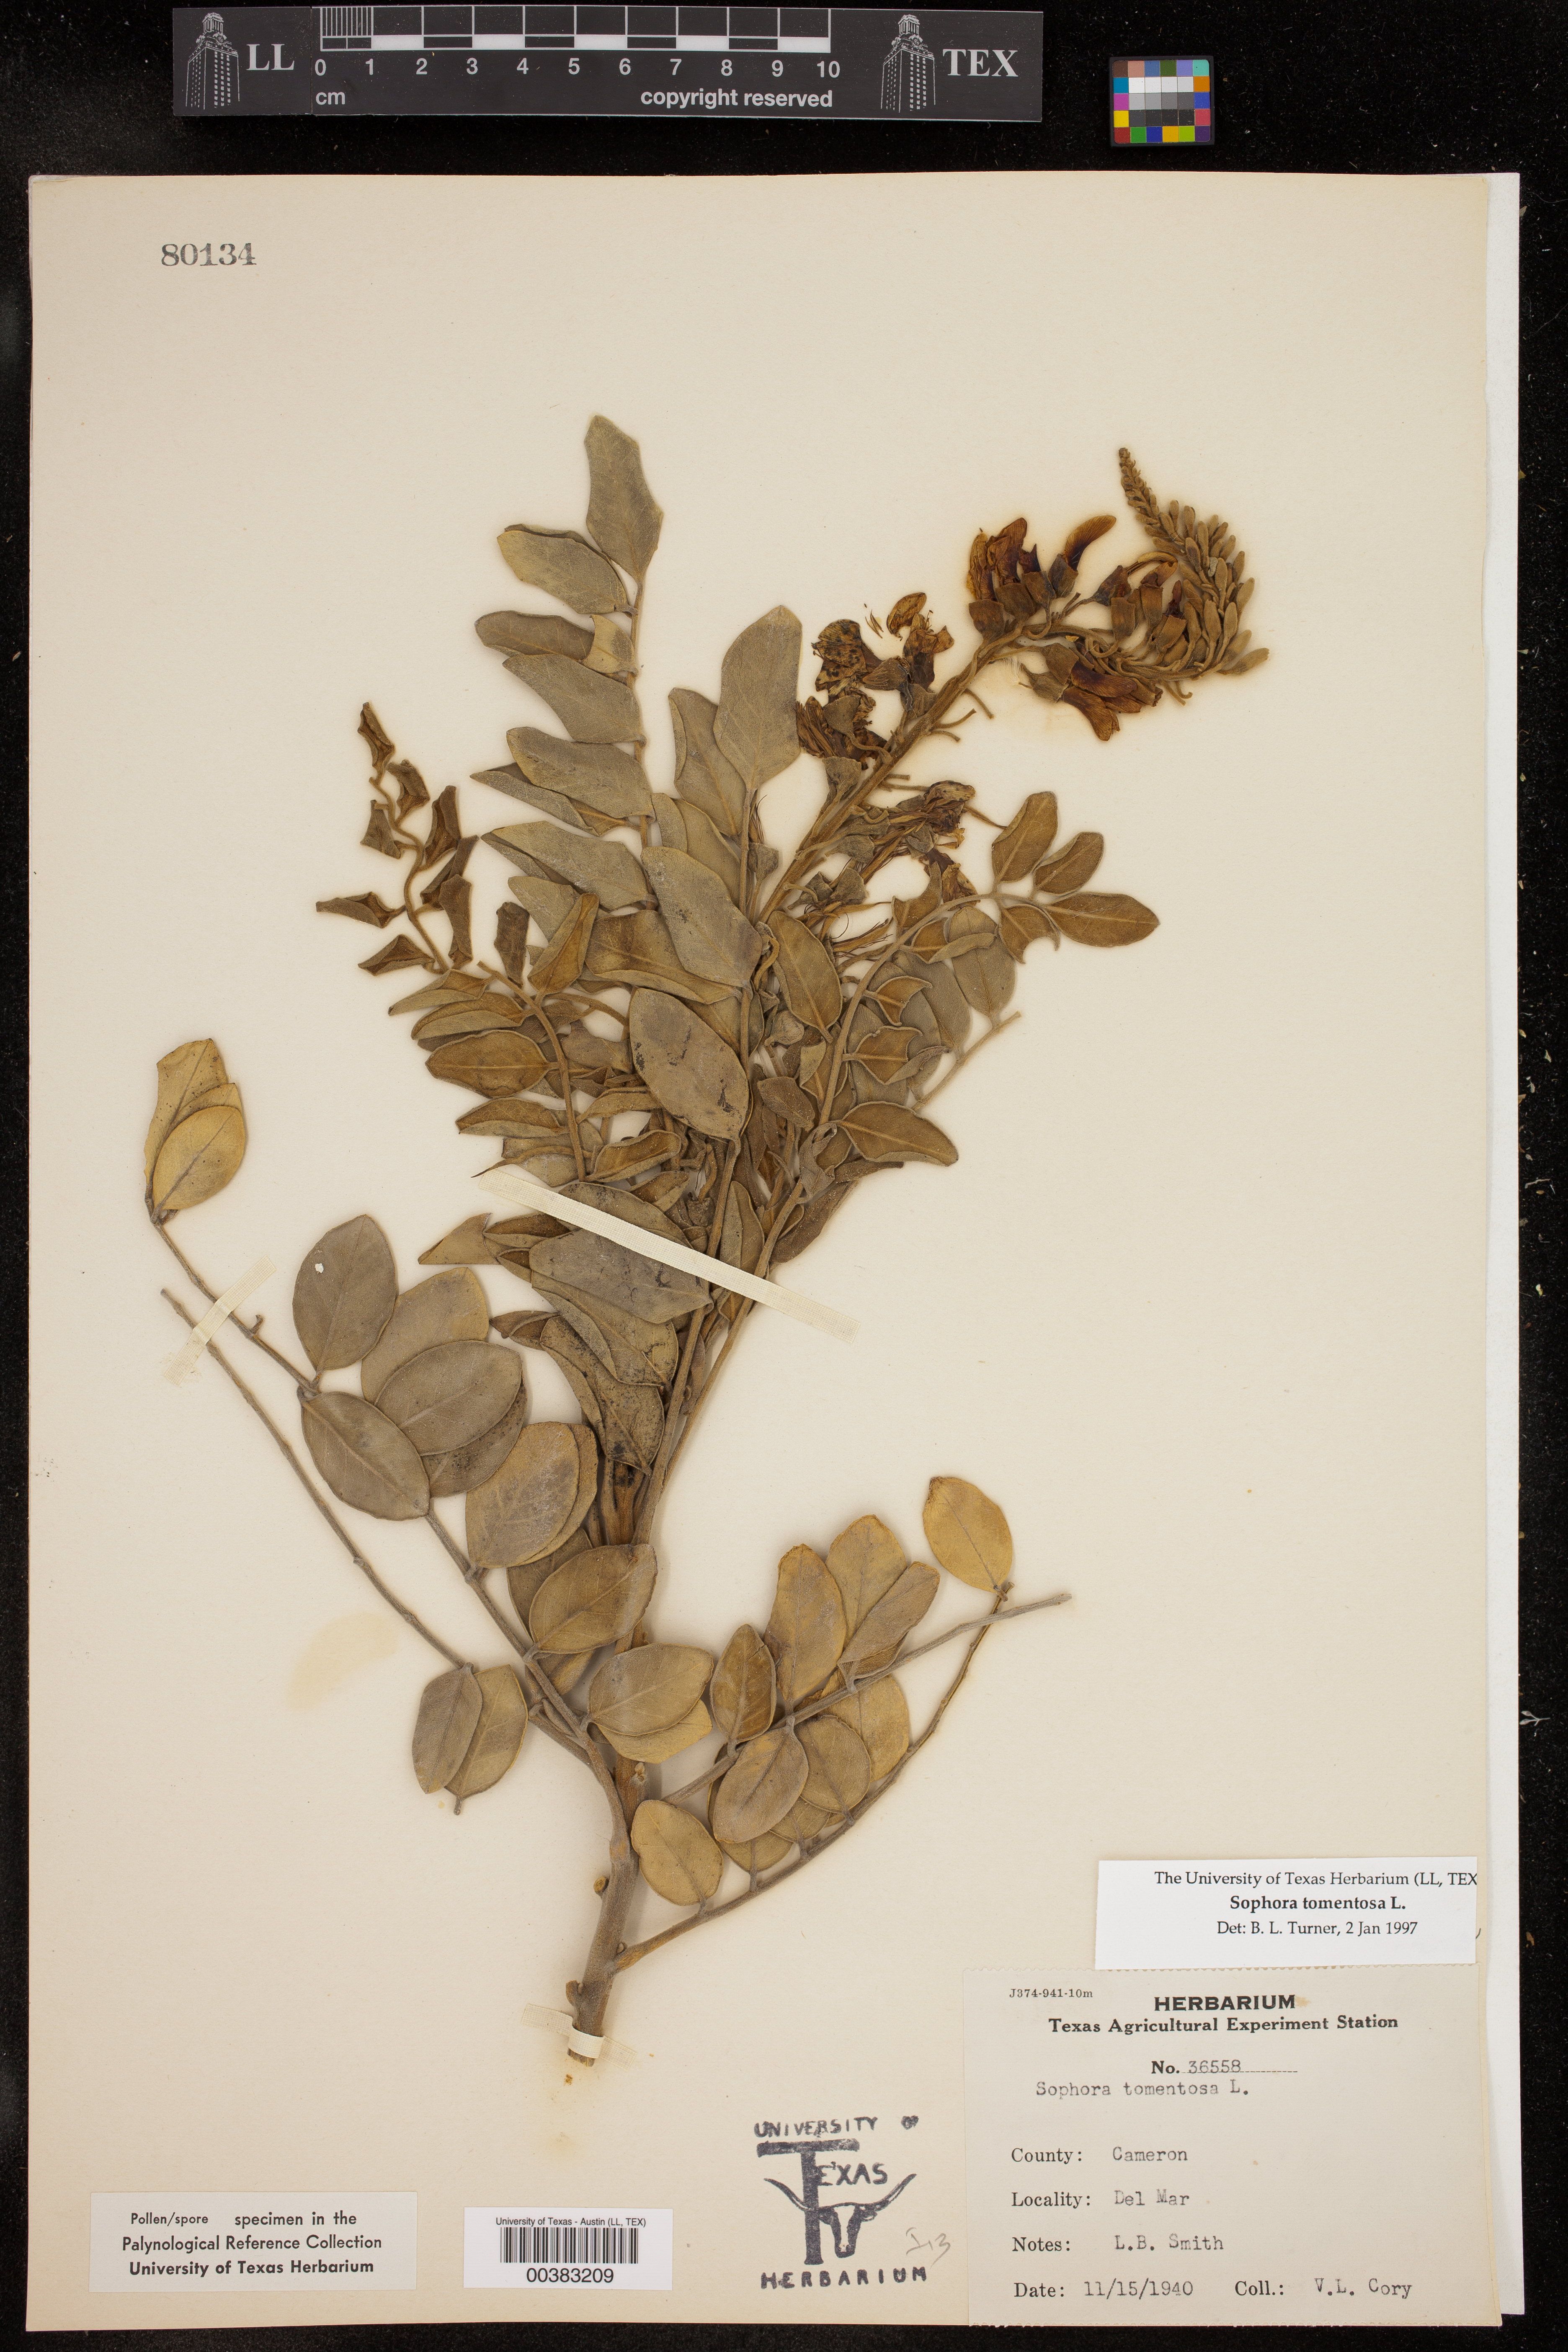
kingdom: Plantae
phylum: Tracheophyta
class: Magnoliopsida
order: Fabales
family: Fabaceae
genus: Sophora
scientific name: Sophora tomentosa
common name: Yellow necklacepod
